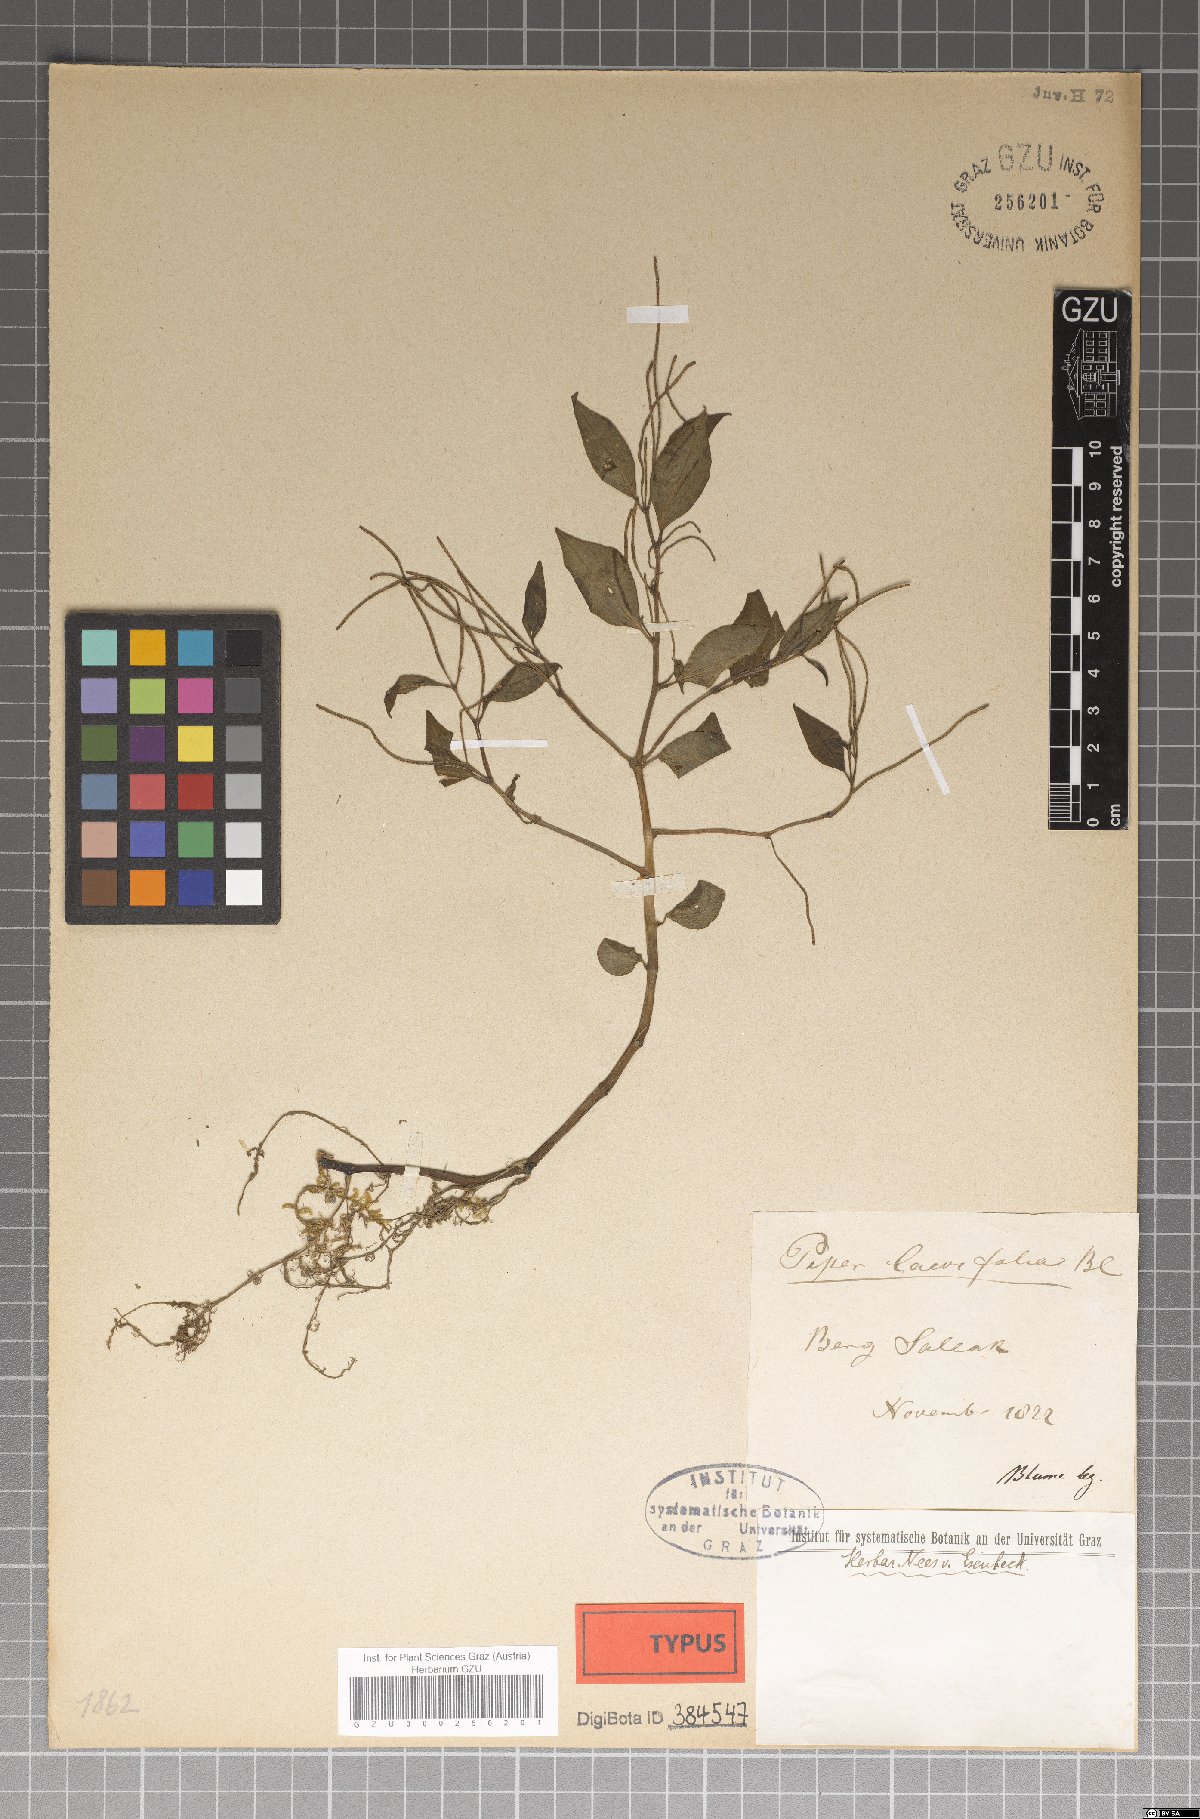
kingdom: Plantae
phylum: Tracheophyta
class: Magnoliopsida
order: Piperales
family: Piperaceae
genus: Peperomia
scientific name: Peperomia laevifolia
